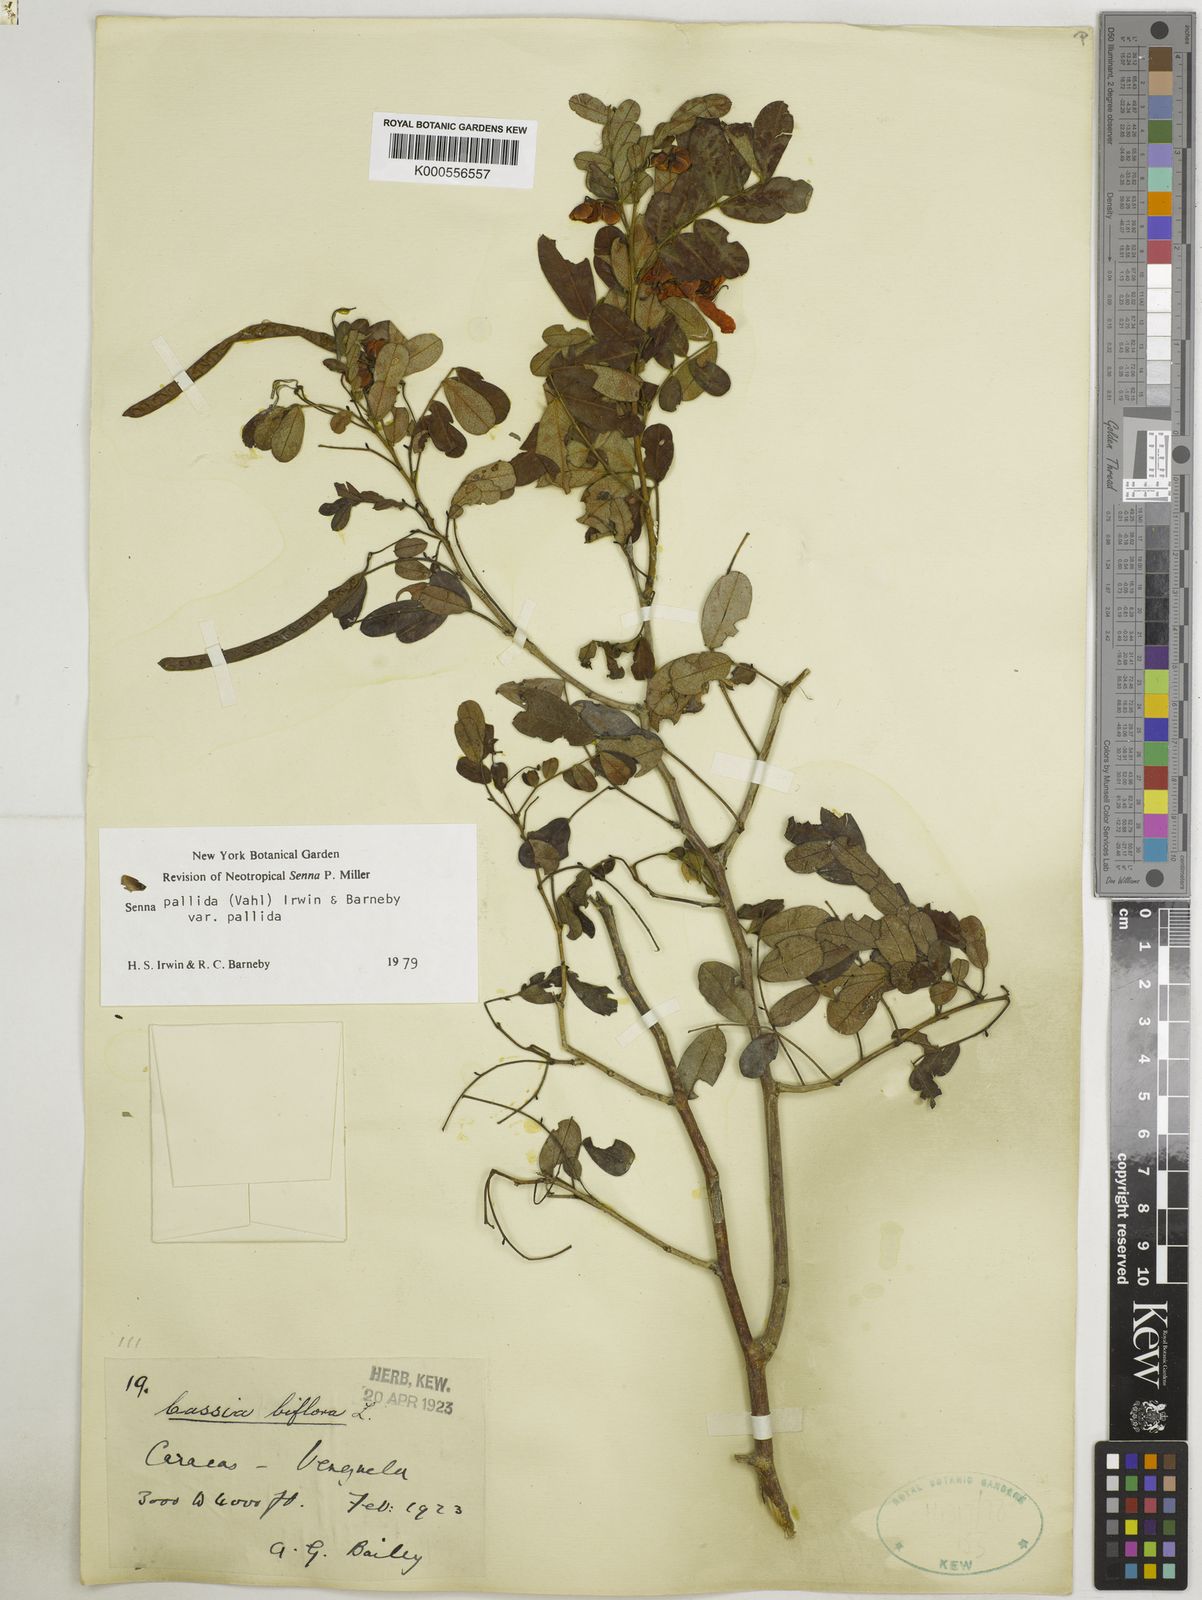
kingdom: Plantae
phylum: Tracheophyta
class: Magnoliopsida
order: Fabales
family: Fabaceae
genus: Senna
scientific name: Senna pallida
